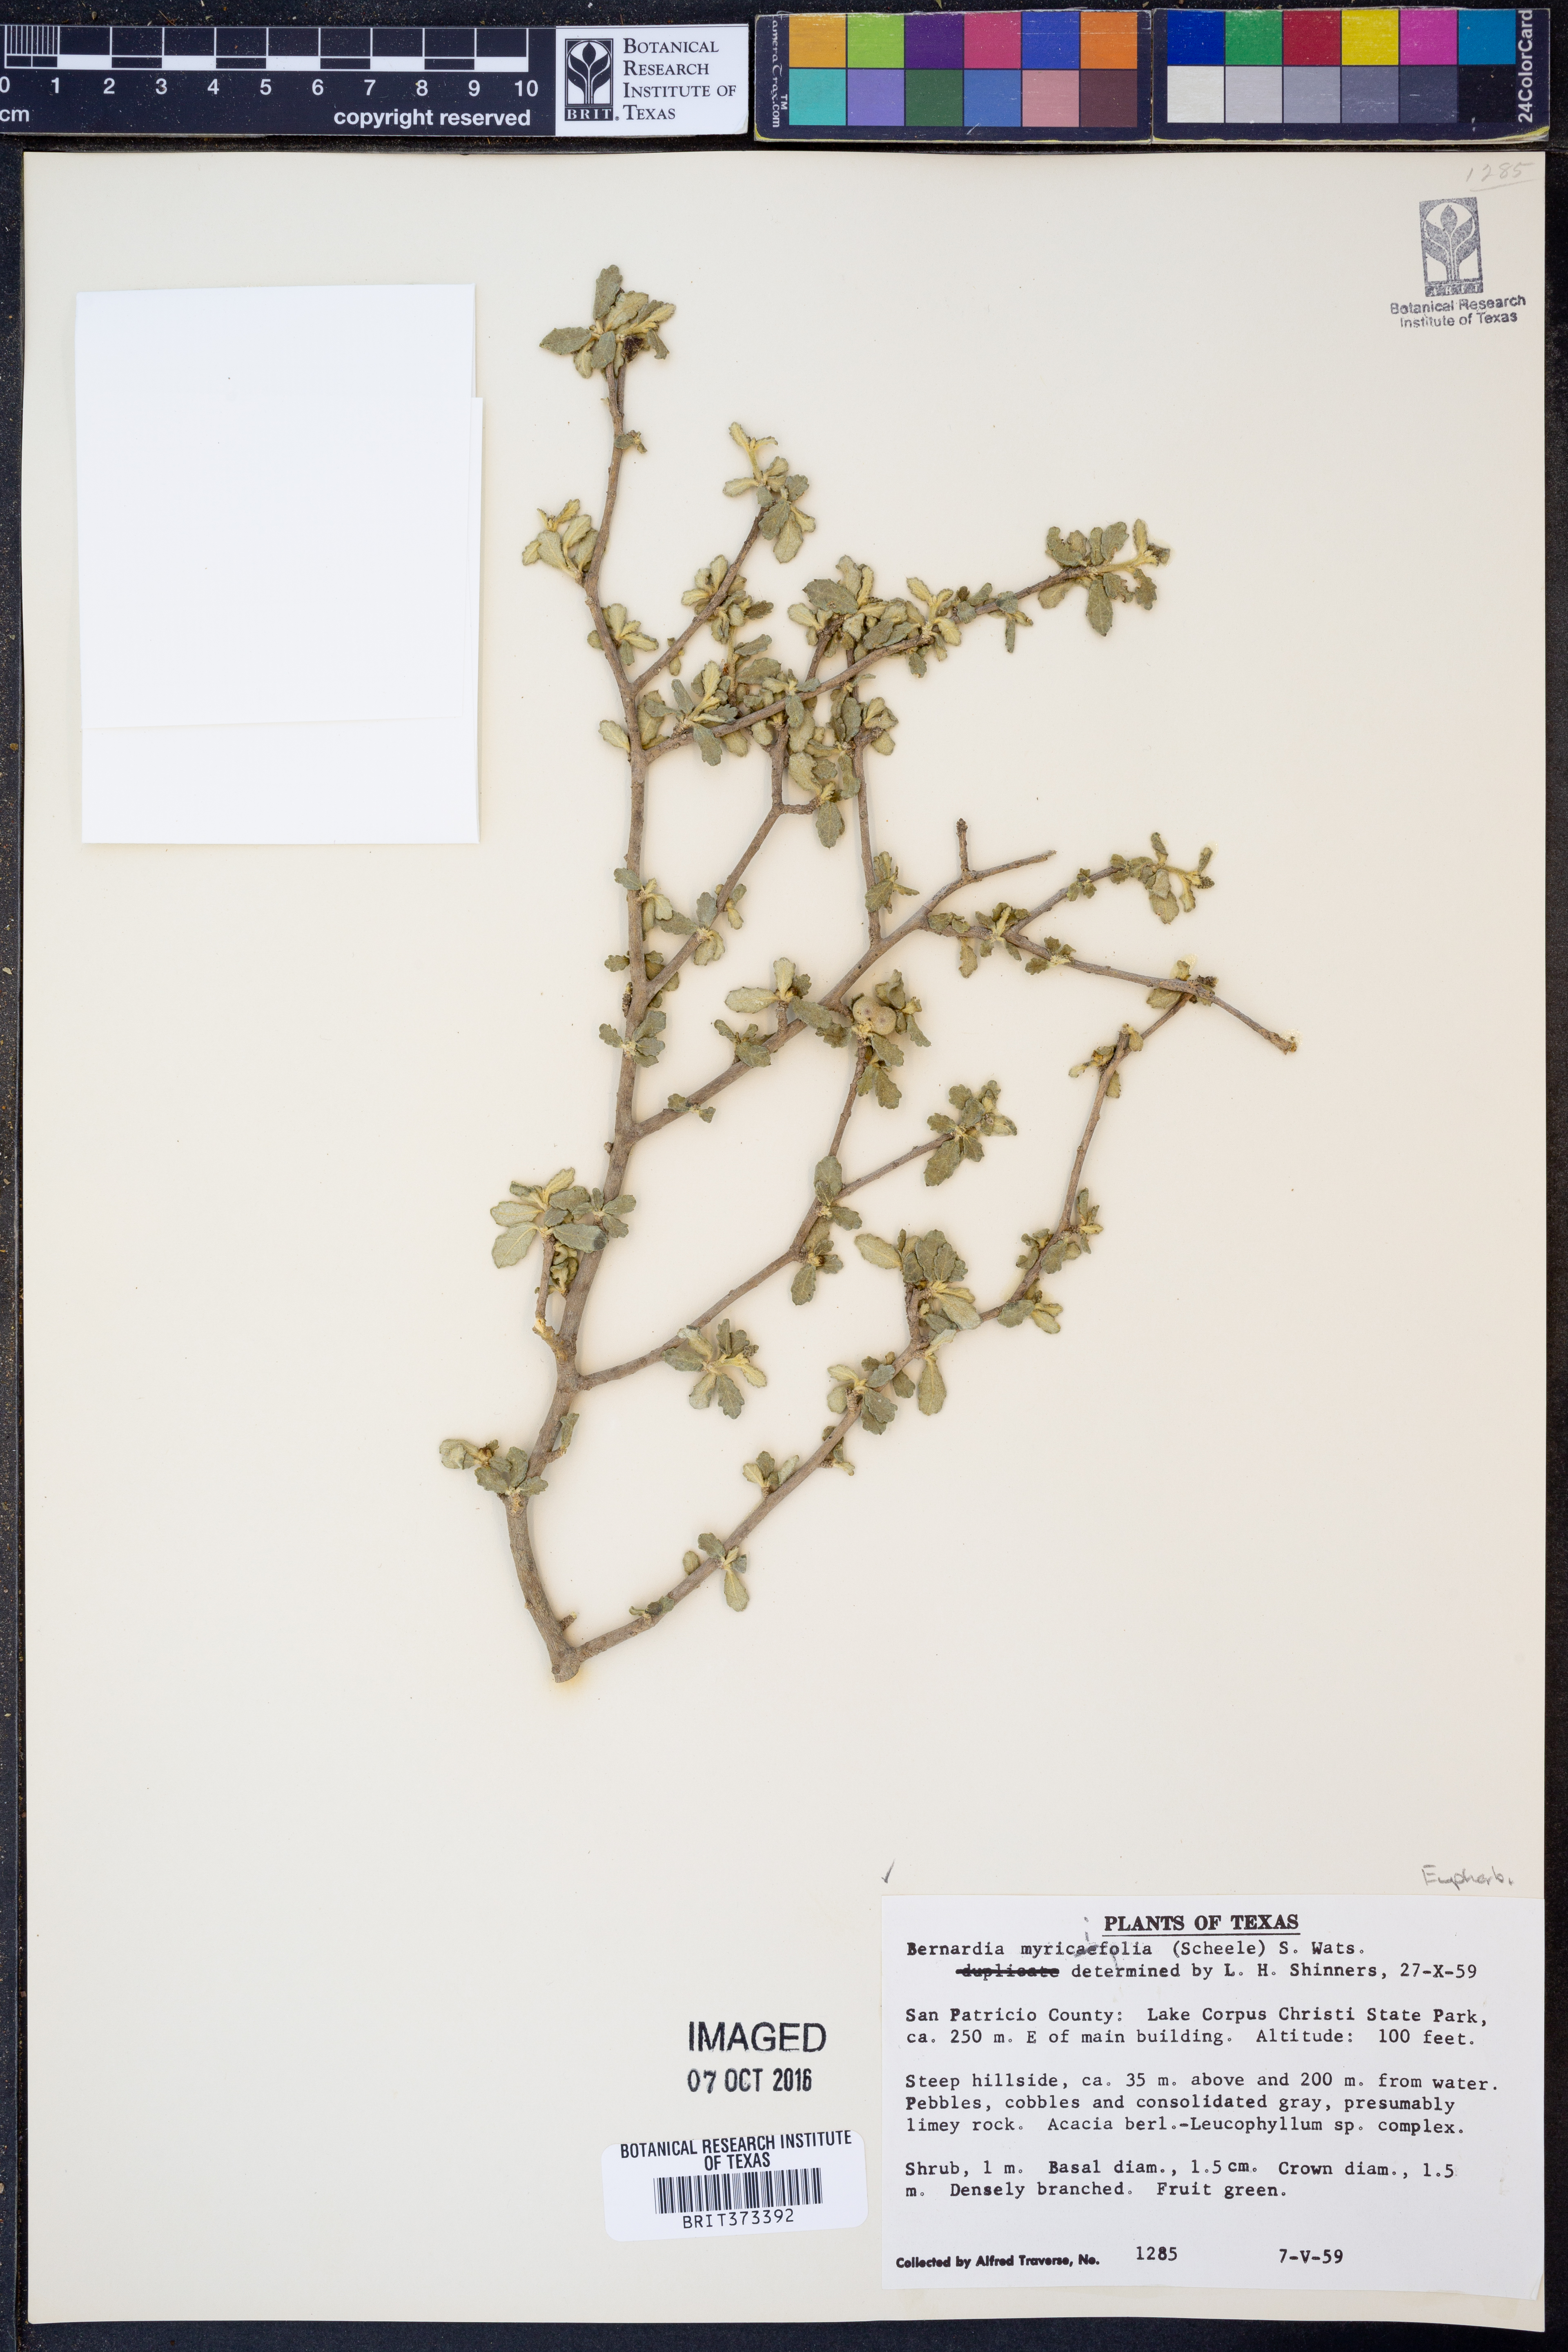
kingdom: Plantae
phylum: Tracheophyta
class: Magnoliopsida
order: Malpighiales
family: Euphorbiaceae
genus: Bernardia
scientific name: Bernardia myricifolia
